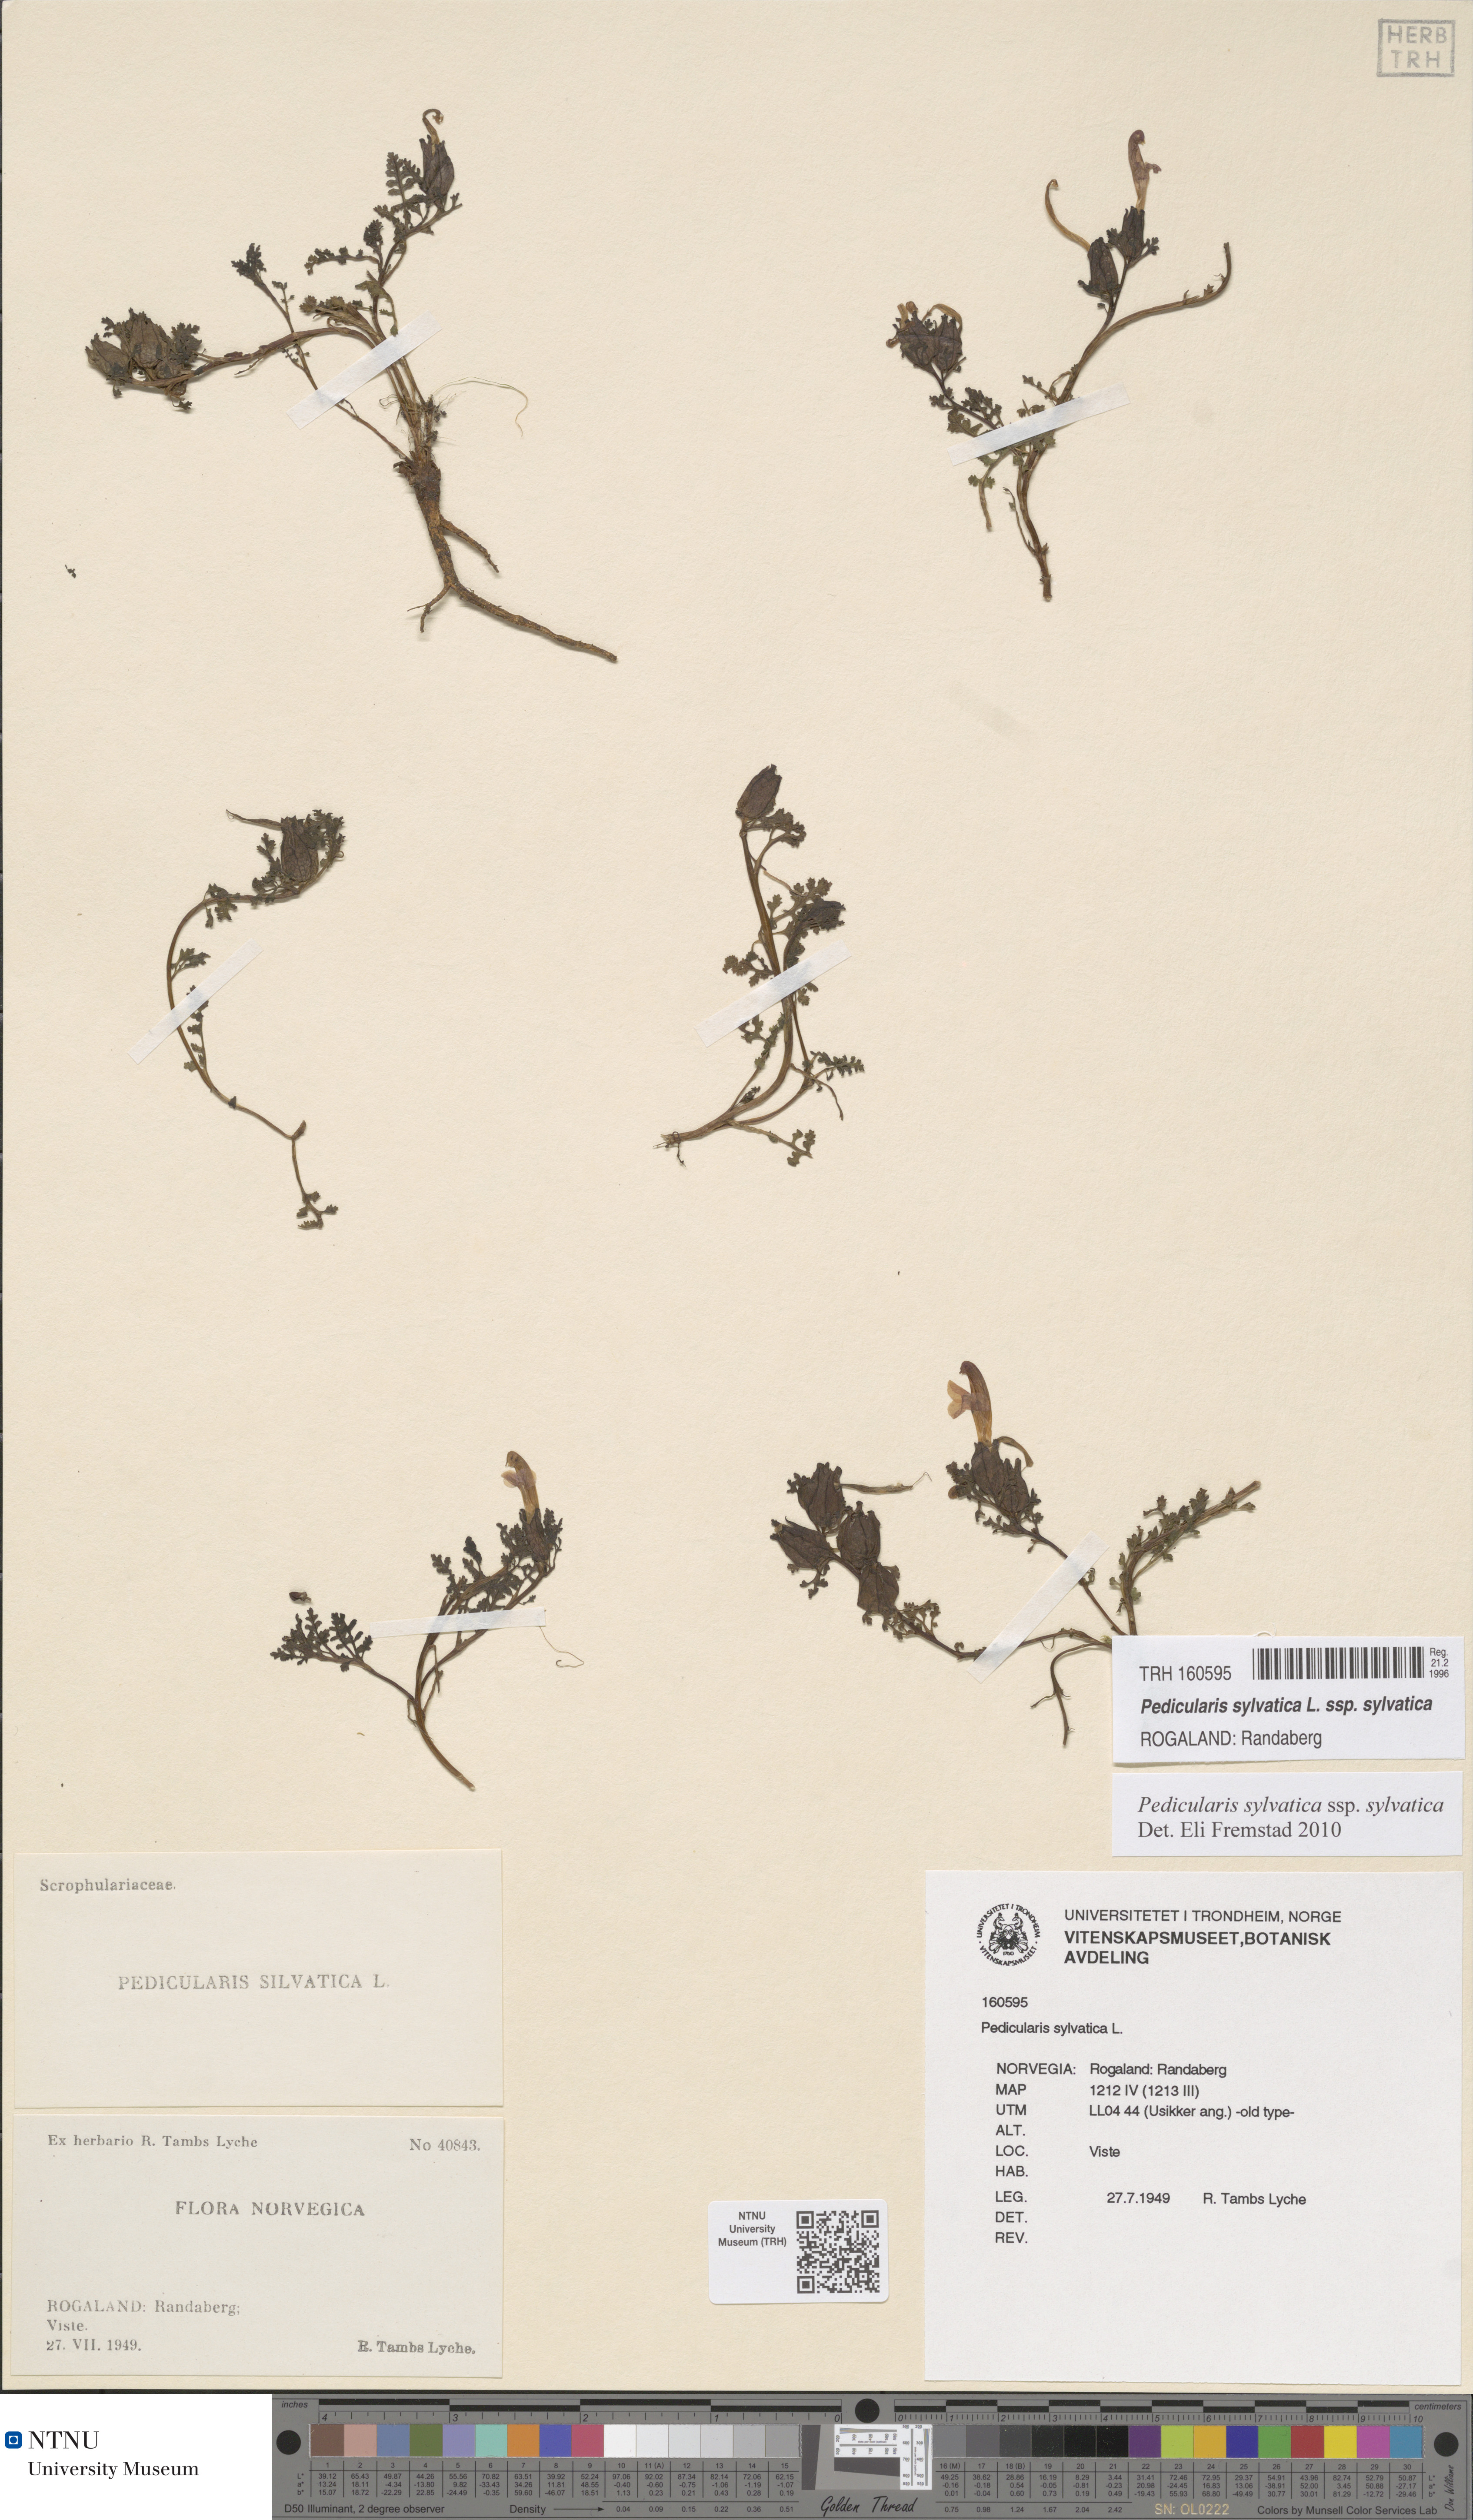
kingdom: Plantae
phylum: Tracheophyta
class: Magnoliopsida
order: Lamiales
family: Orobanchaceae
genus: Pedicularis
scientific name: Pedicularis sylvatica
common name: Lousewort
